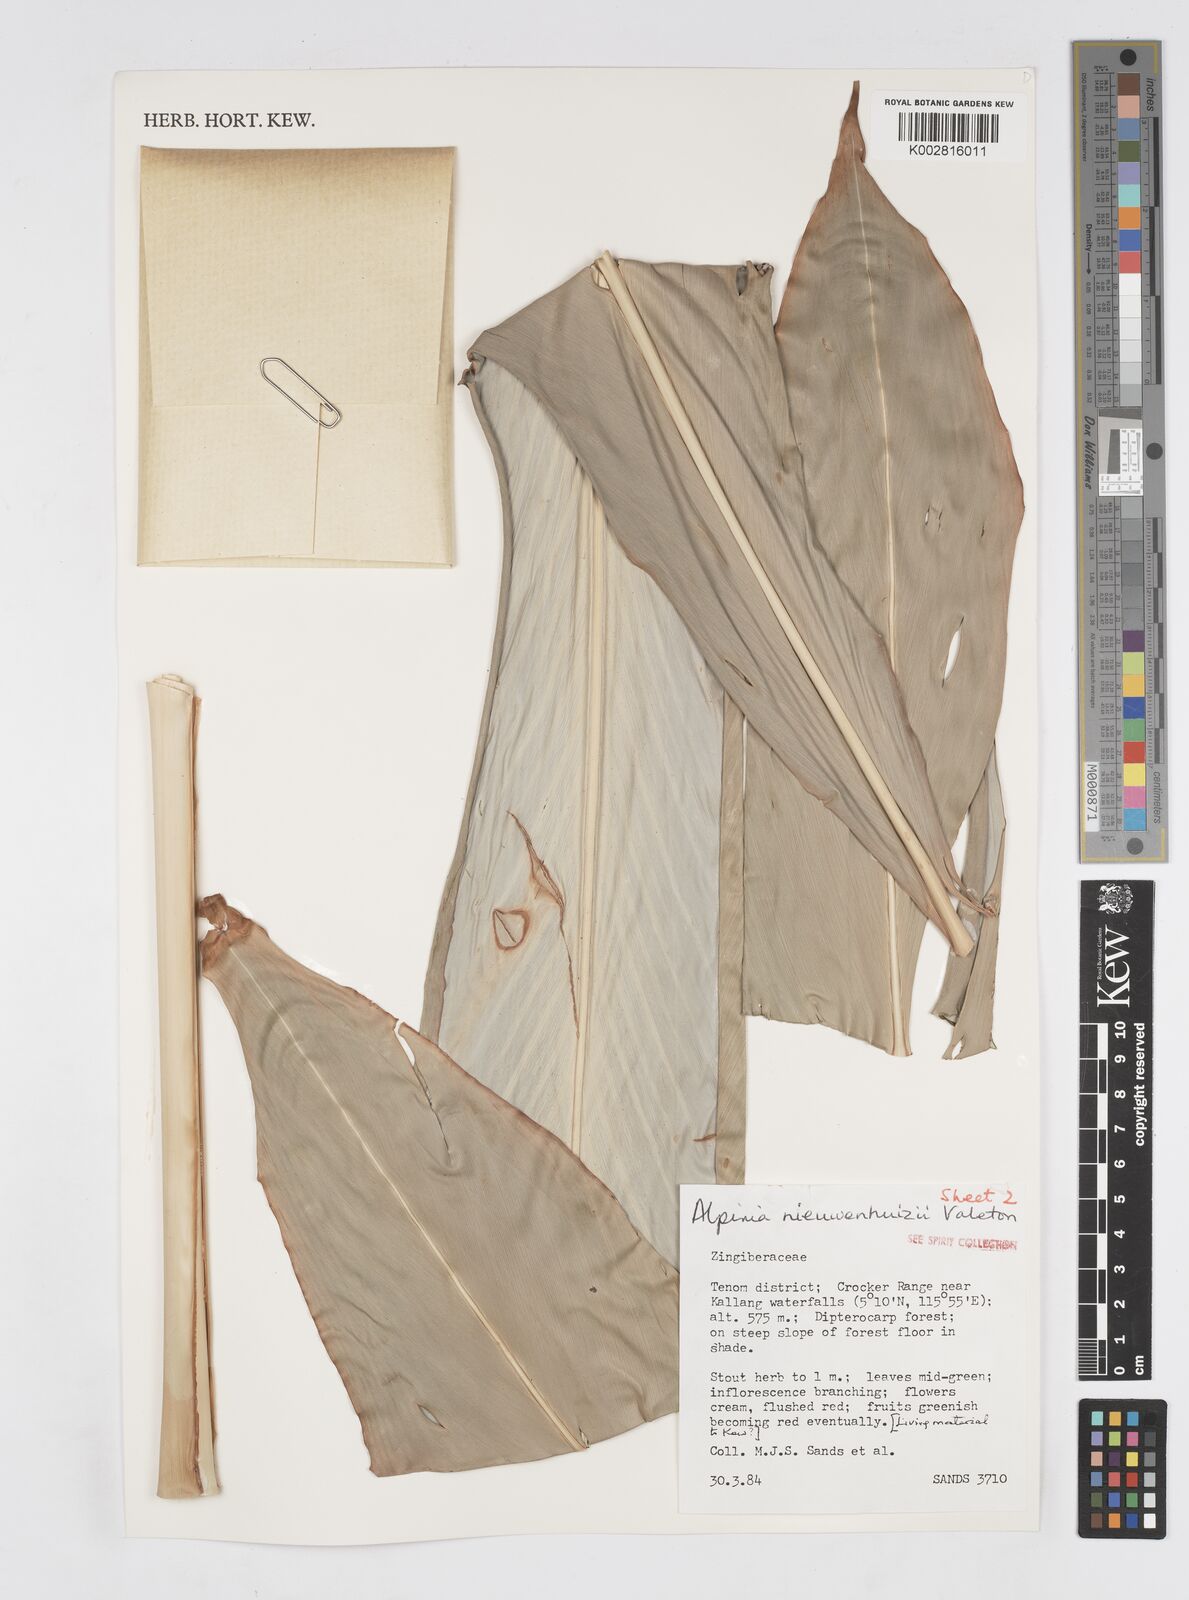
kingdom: Plantae
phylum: Tracheophyta
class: Liliopsida
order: Zingiberales
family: Zingiberaceae
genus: Alpinia
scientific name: Alpinia nieuwenhuizii
